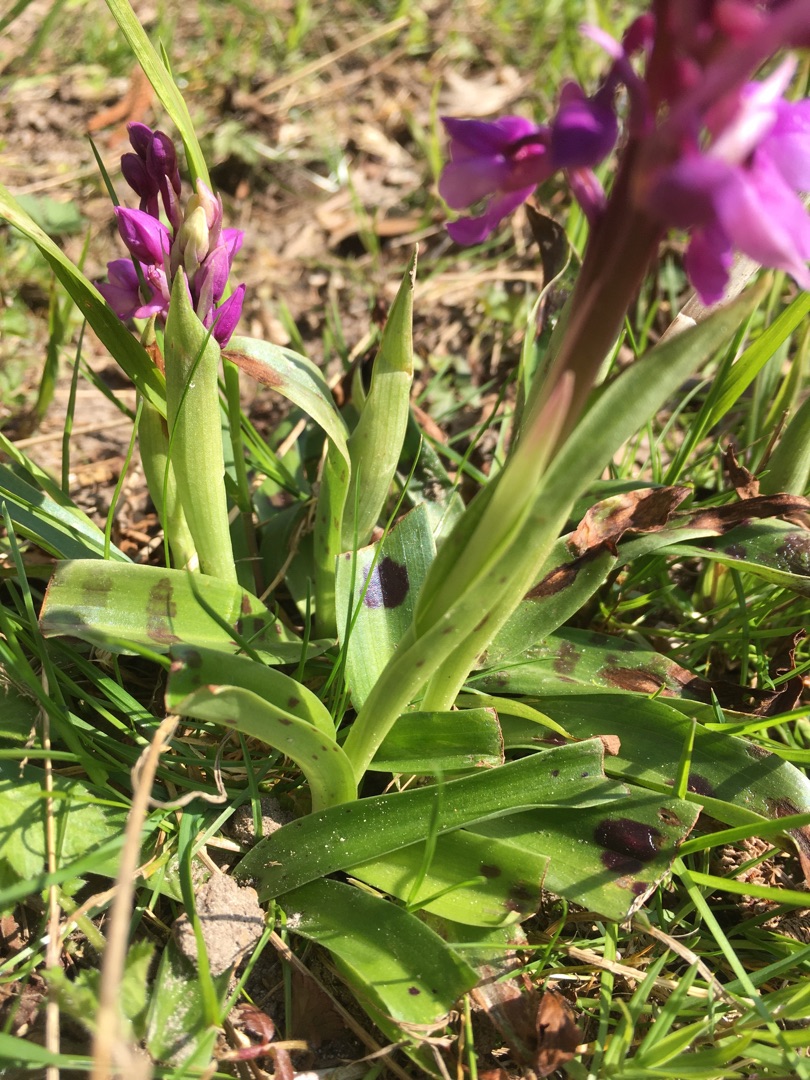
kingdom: Plantae
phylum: Tracheophyta
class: Liliopsida
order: Asparagales
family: Orchidaceae
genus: Orchis
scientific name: Orchis mascula
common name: Tyndakset gøgeurt
